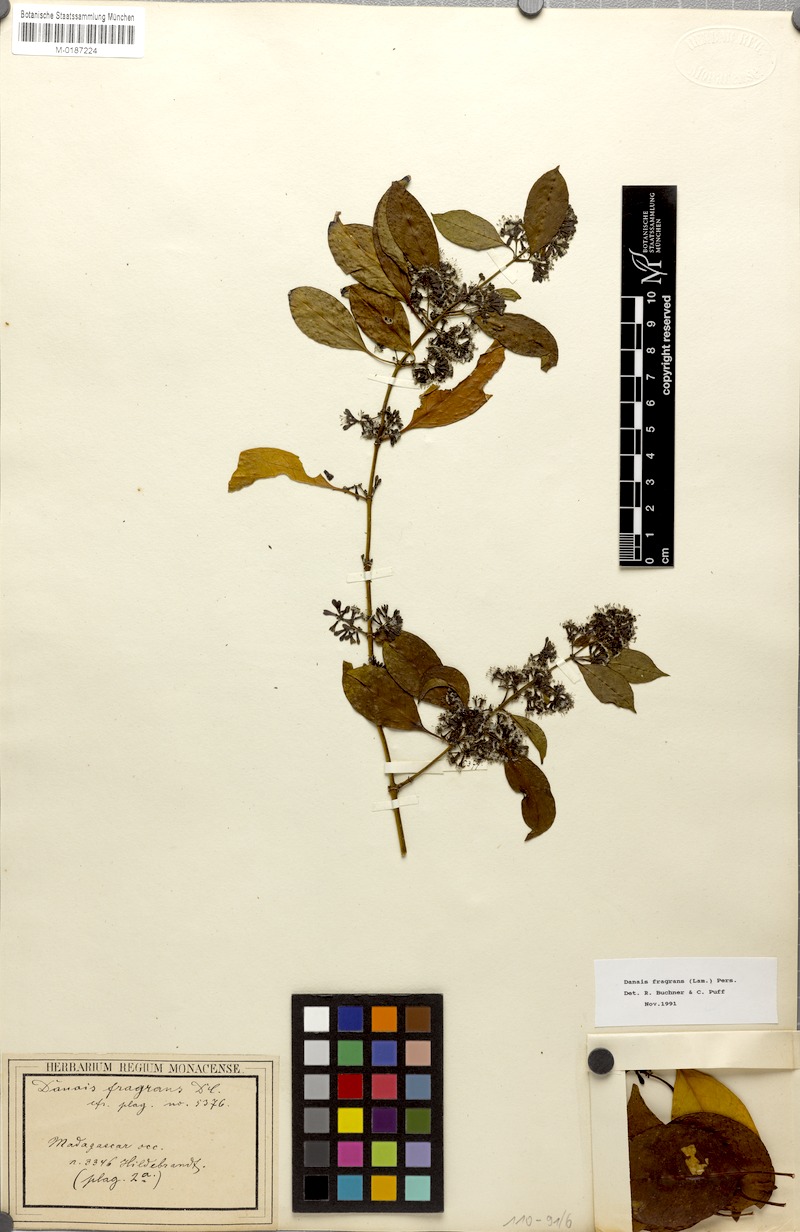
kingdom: Plantae
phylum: Tracheophyta
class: Magnoliopsida
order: Gentianales
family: Rubiaceae
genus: Danais
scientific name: Danais fragrans
